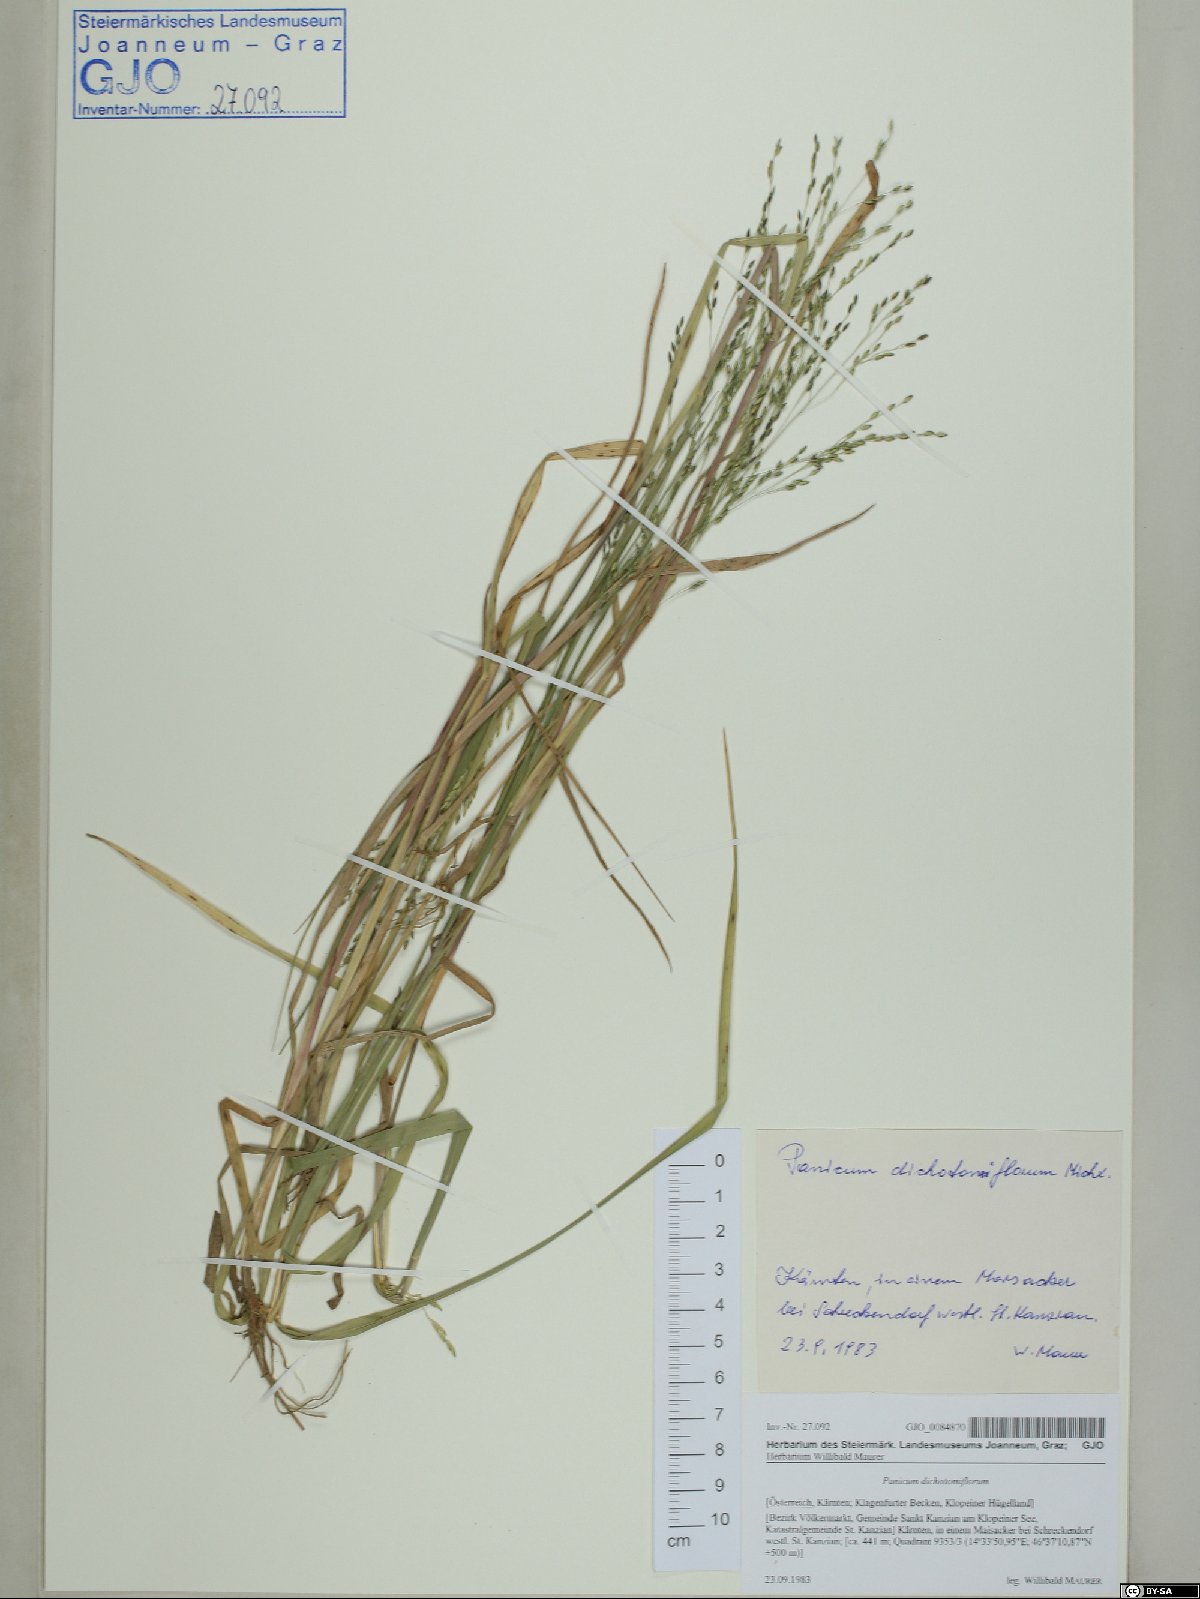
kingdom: Plantae
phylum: Tracheophyta
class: Liliopsida
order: Poales
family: Poaceae
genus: Panicum
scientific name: Panicum dichotomiflorum
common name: Autumn millet
